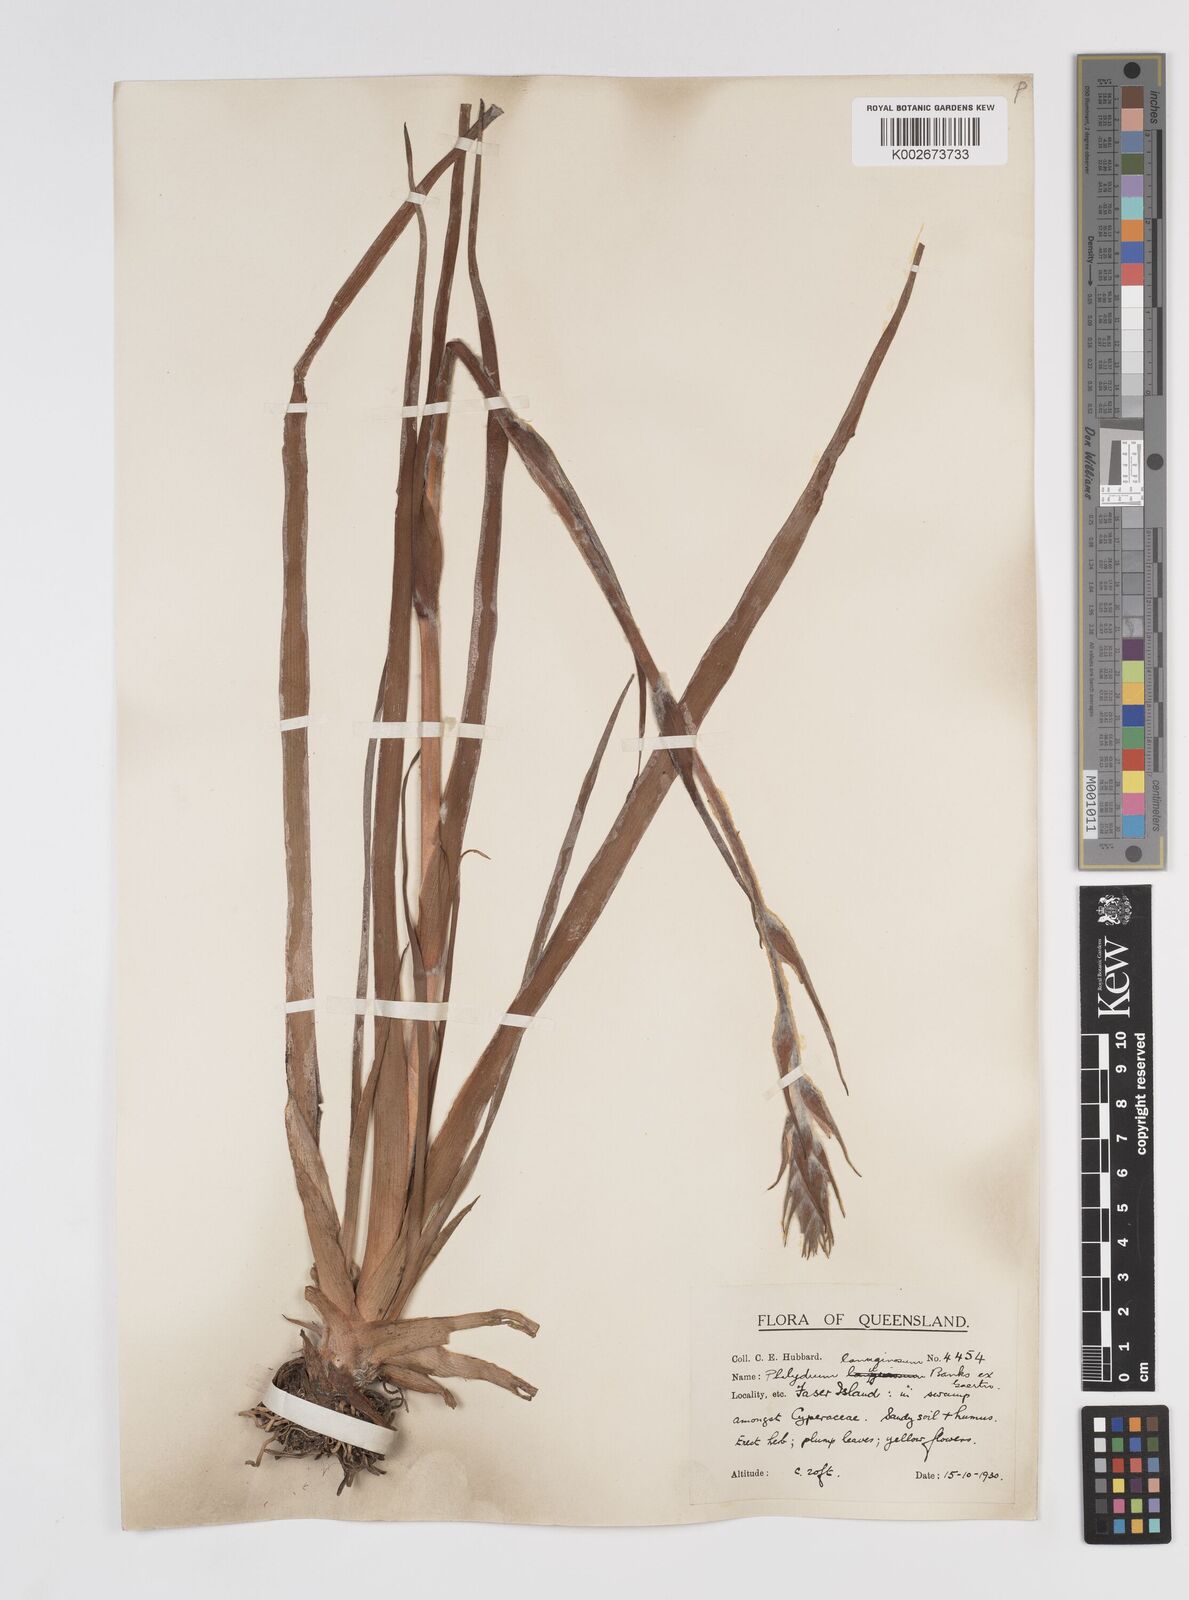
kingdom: Plantae
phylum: Tracheophyta
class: Liliopsida
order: Commelinales
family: Philydraceae
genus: Philydrum
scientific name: Philydrum lanuginosum
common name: Woolly frog's mouth
